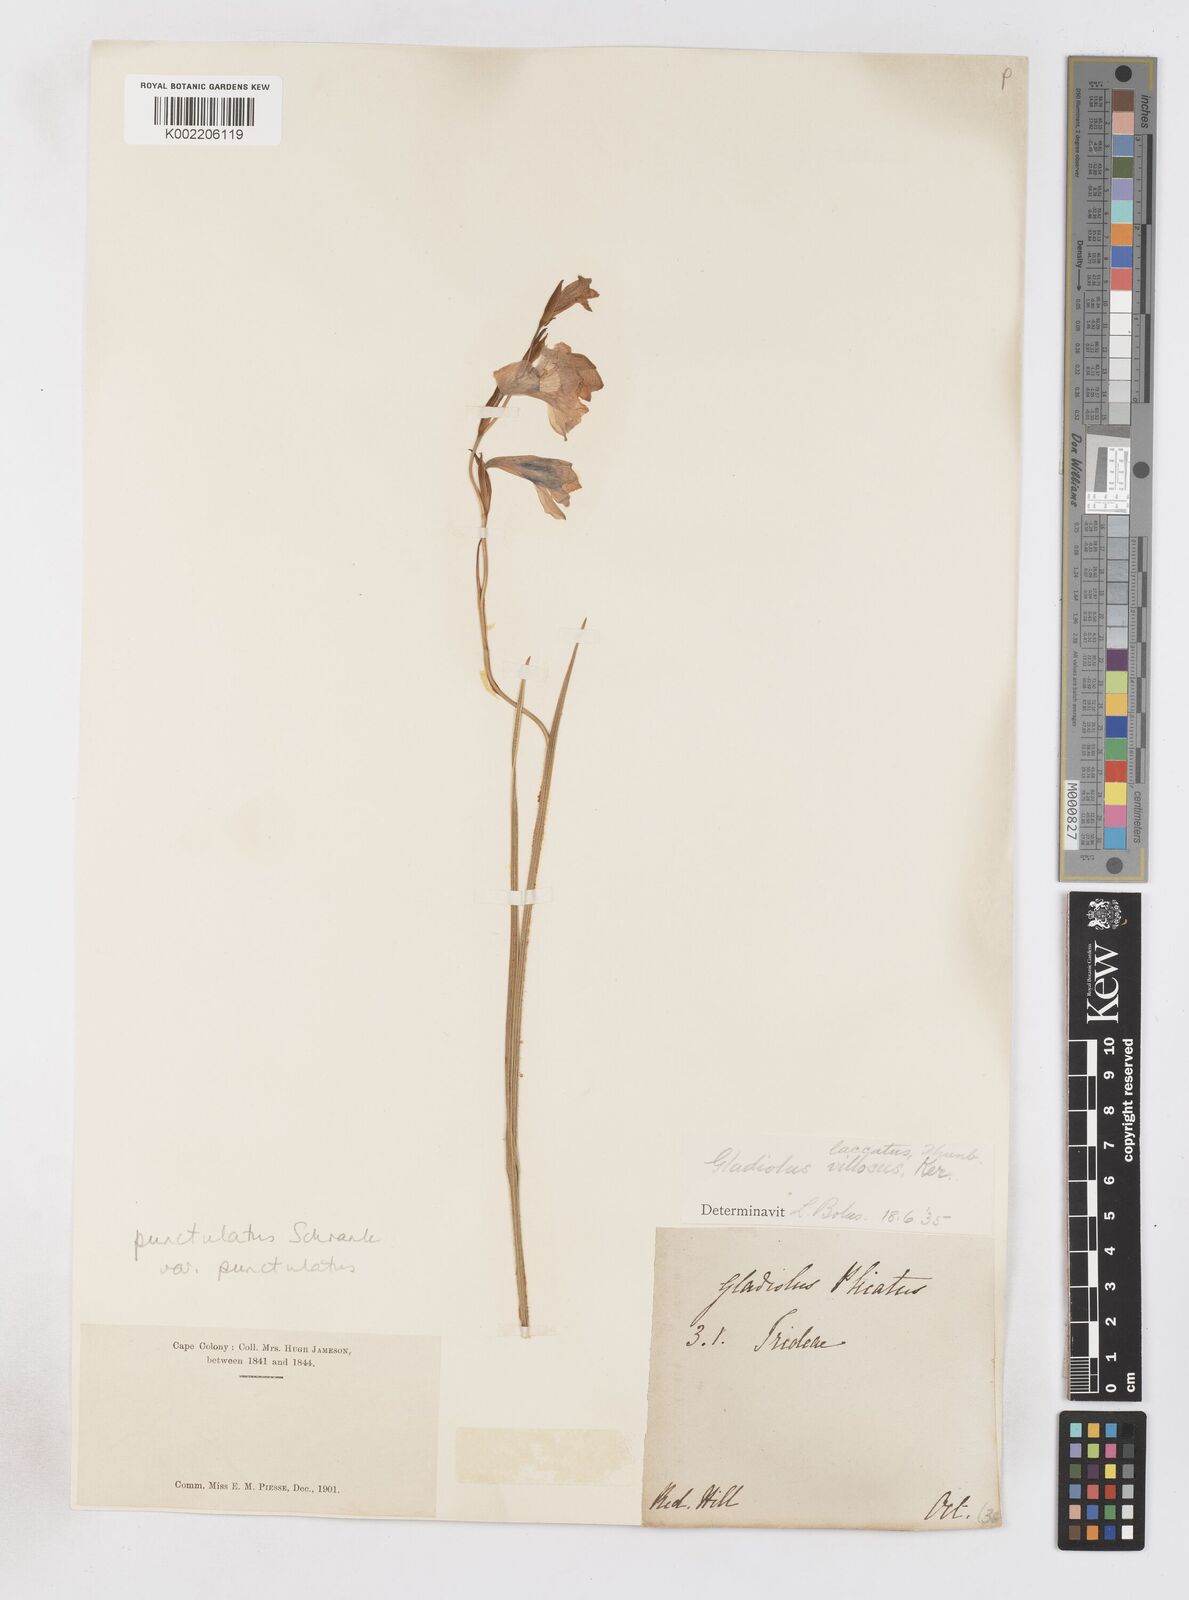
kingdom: Plantae
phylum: Tracheophyta
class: Liliopsida
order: Asparagales
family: Iridaceae
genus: Gladiolus
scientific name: Gladiolus hirsutus
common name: Small pink afrikaner
